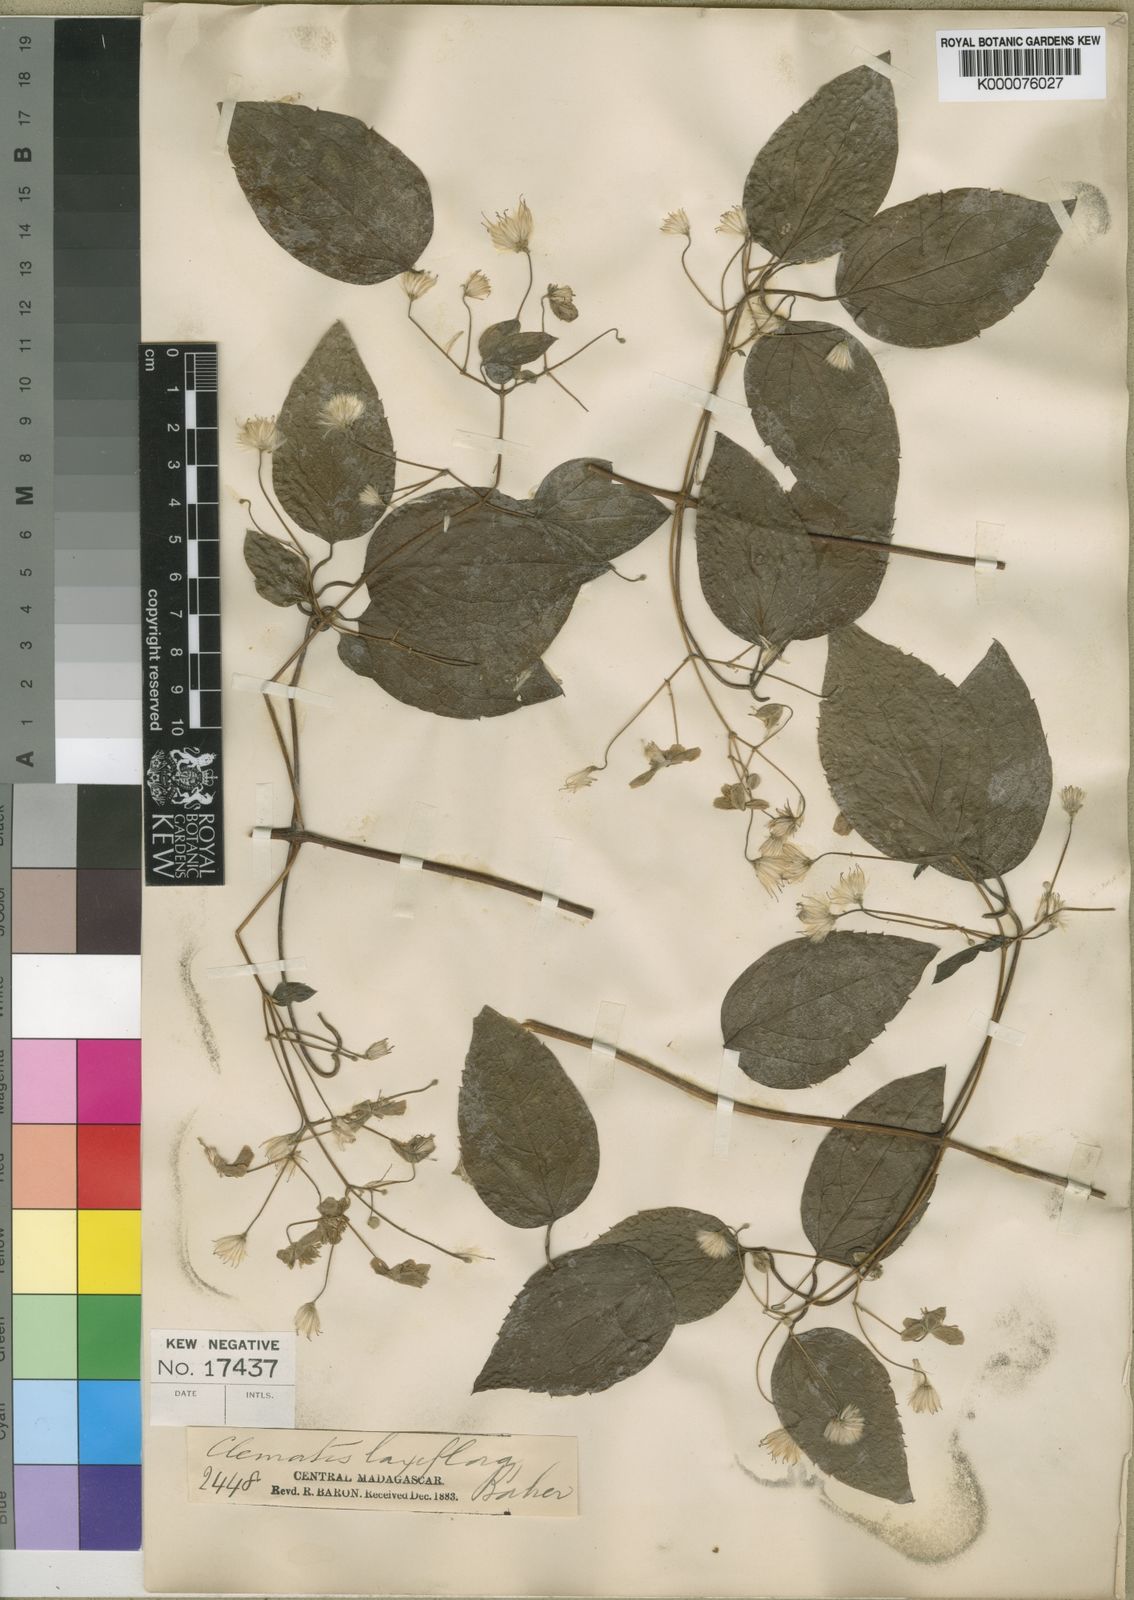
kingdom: Plantae
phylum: Tracheophyta
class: Magnoliopsida
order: Ranunculales
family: Ranunculaceae
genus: Clematis
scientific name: Clematis orientalis
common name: Oriental virgin's-bower
